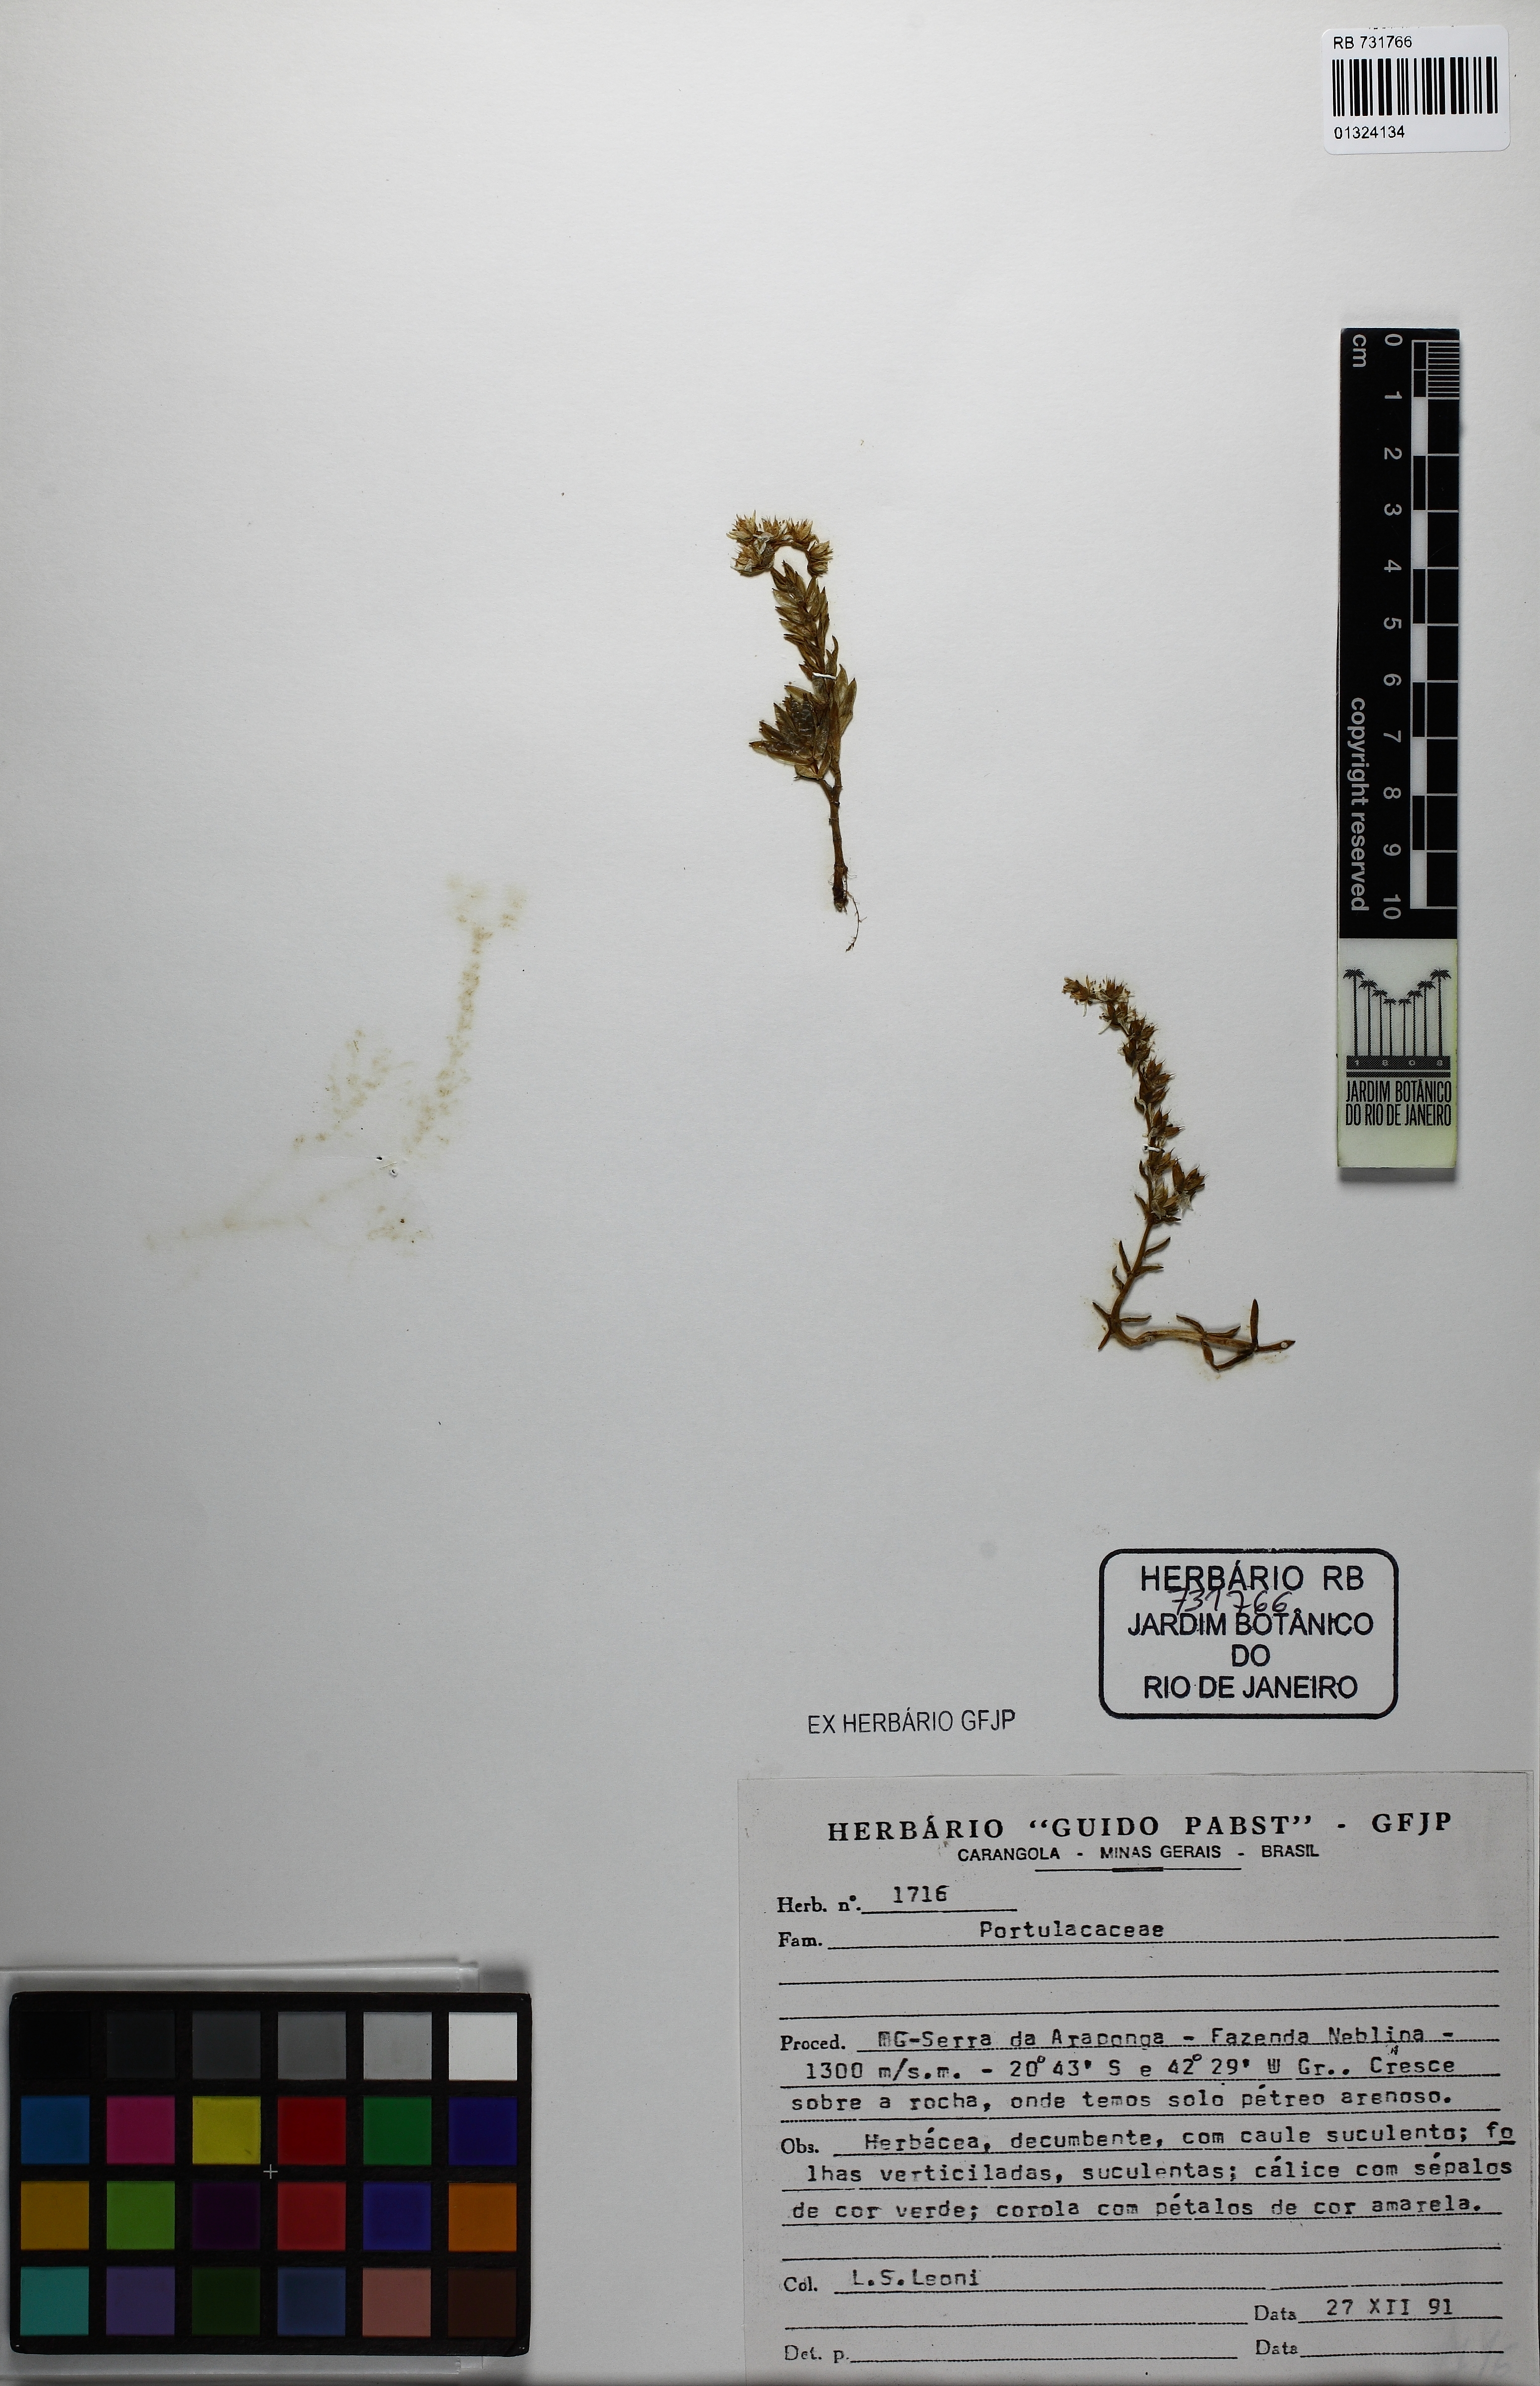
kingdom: Plantae
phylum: Tracheophyta
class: Magnoliopsida
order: Caryophyllales
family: Portulacaceae
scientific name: Portulacaceae
